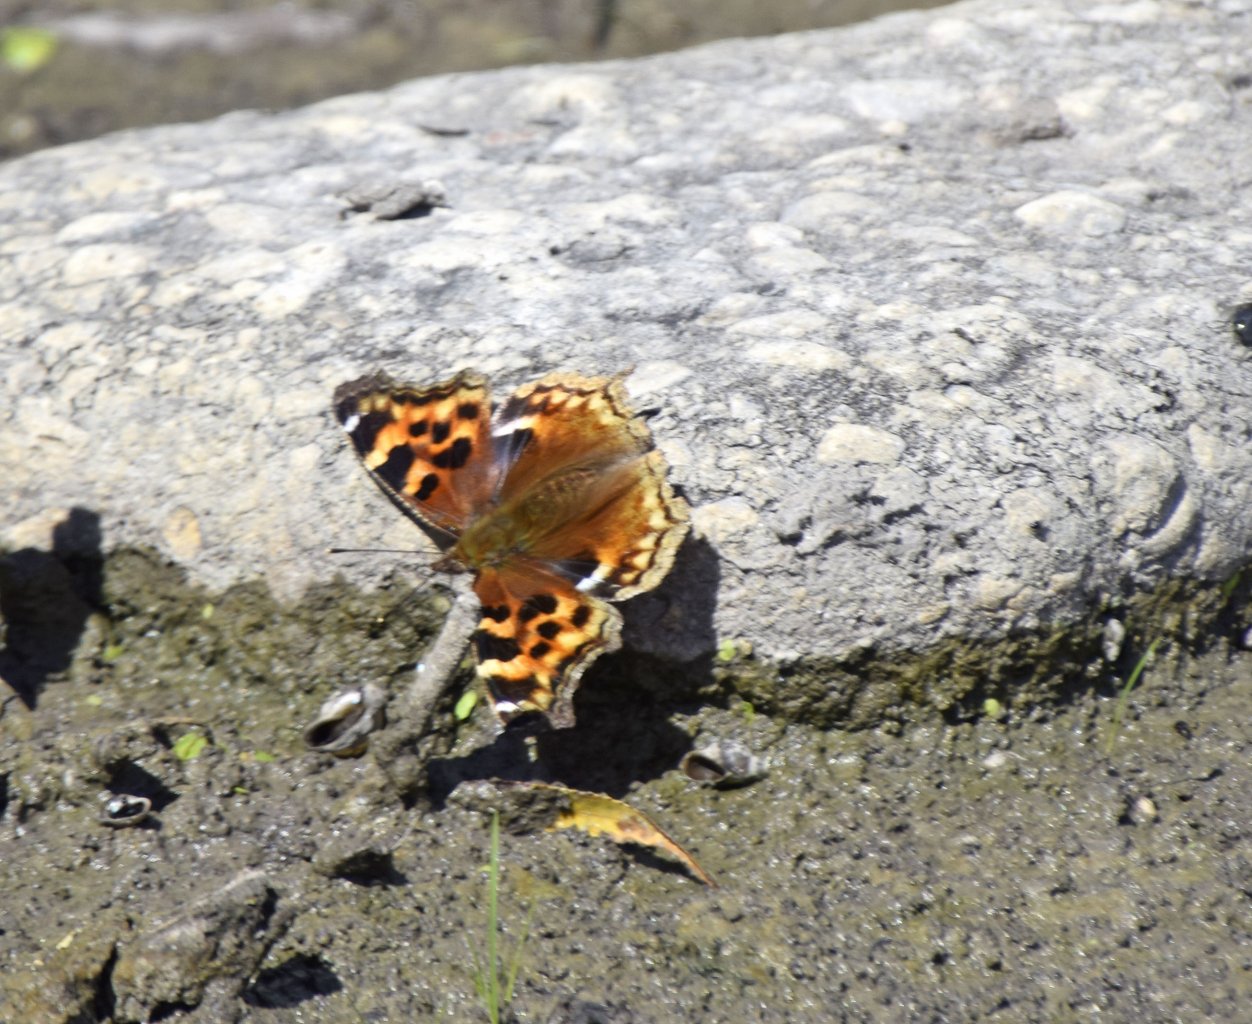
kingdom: Animalia
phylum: Arthropoda
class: Insecta
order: Lepidoptera
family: Nymphalidae
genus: Polygonia
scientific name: Polygonia vaualbum
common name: Compton Tortoiseshell
